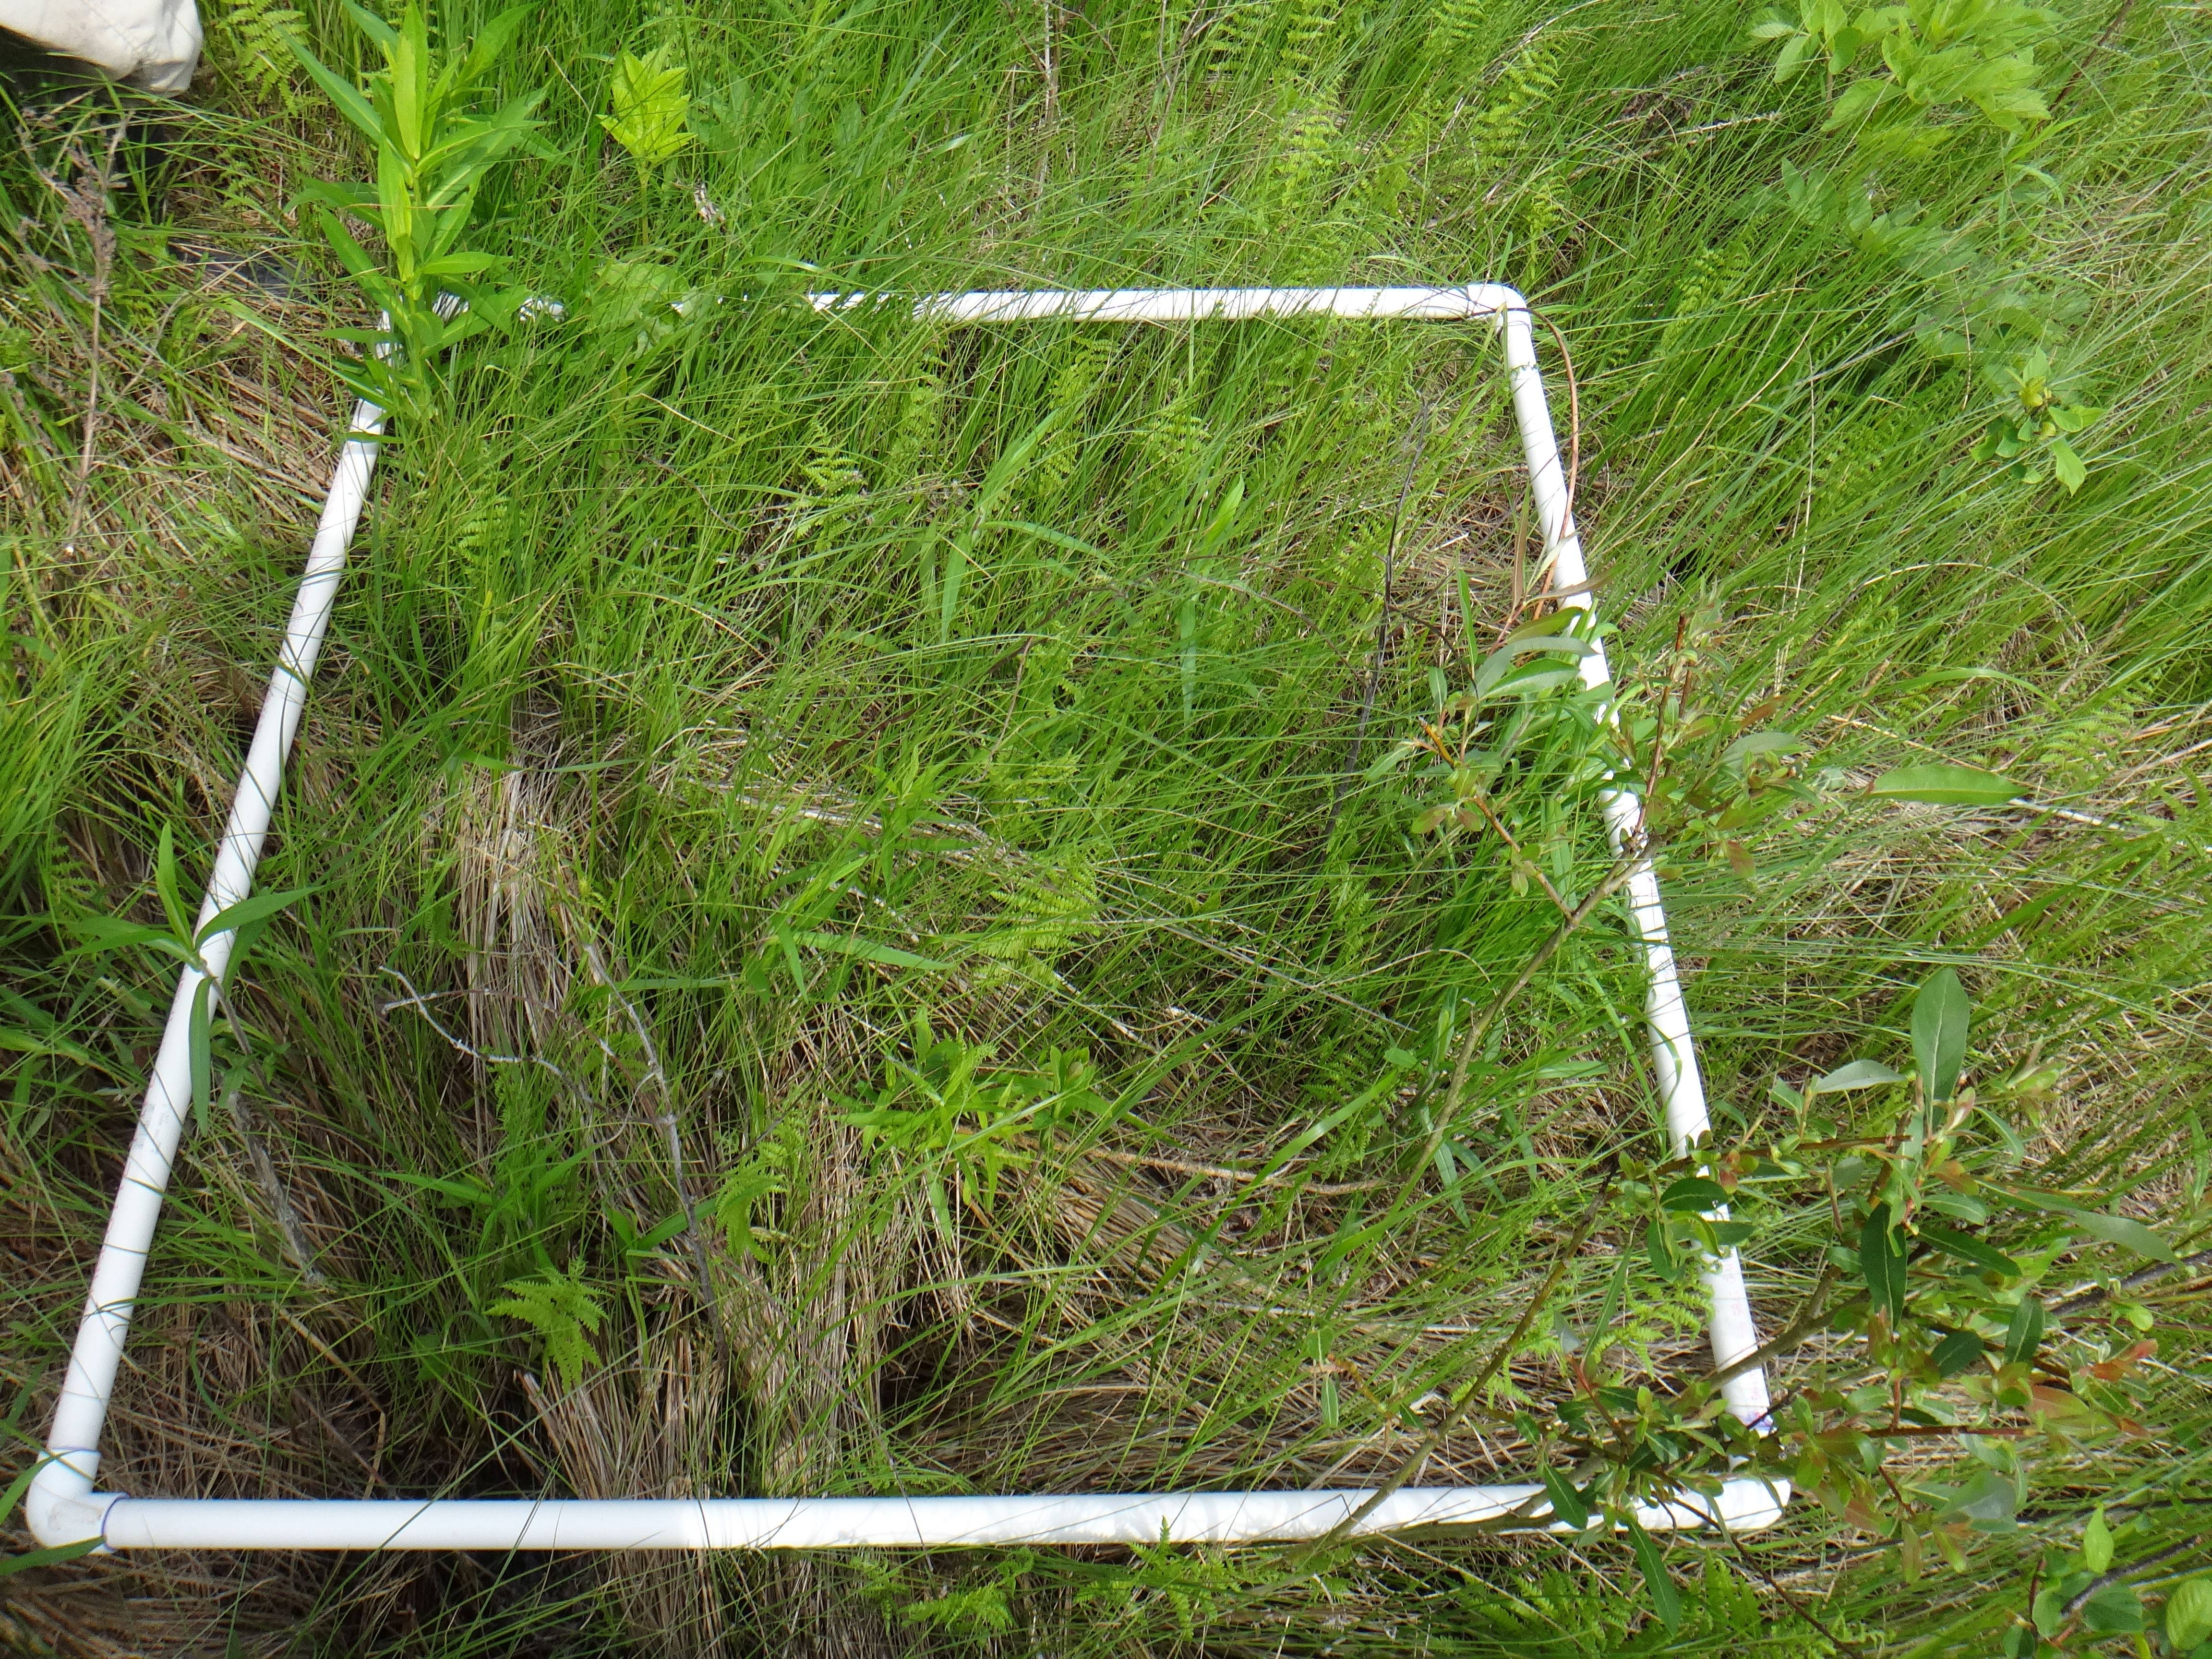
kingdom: Plantae
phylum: Tracheophyta
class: Magnoliopsida
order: Asterales
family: Asteraceae
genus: Solidago
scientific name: Solidago patula
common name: Rough-leaf goldenrod
